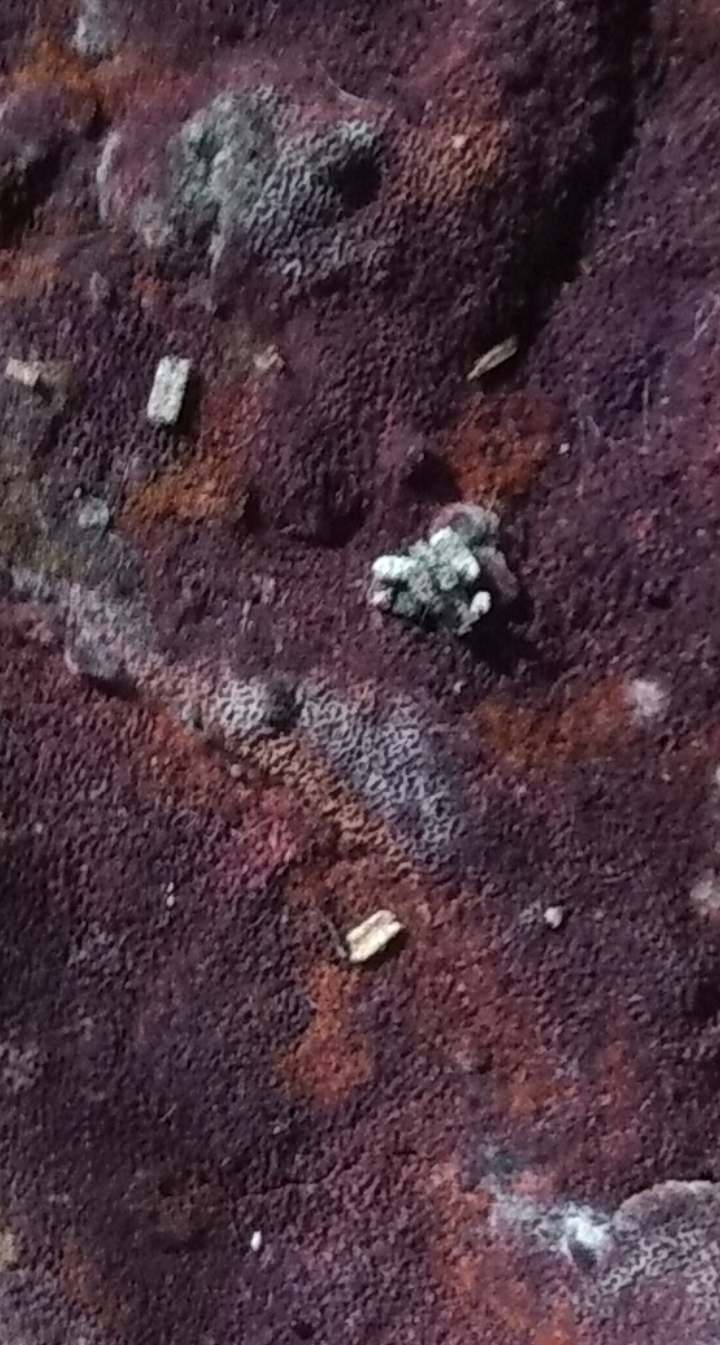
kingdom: Fungi
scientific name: Fungi
